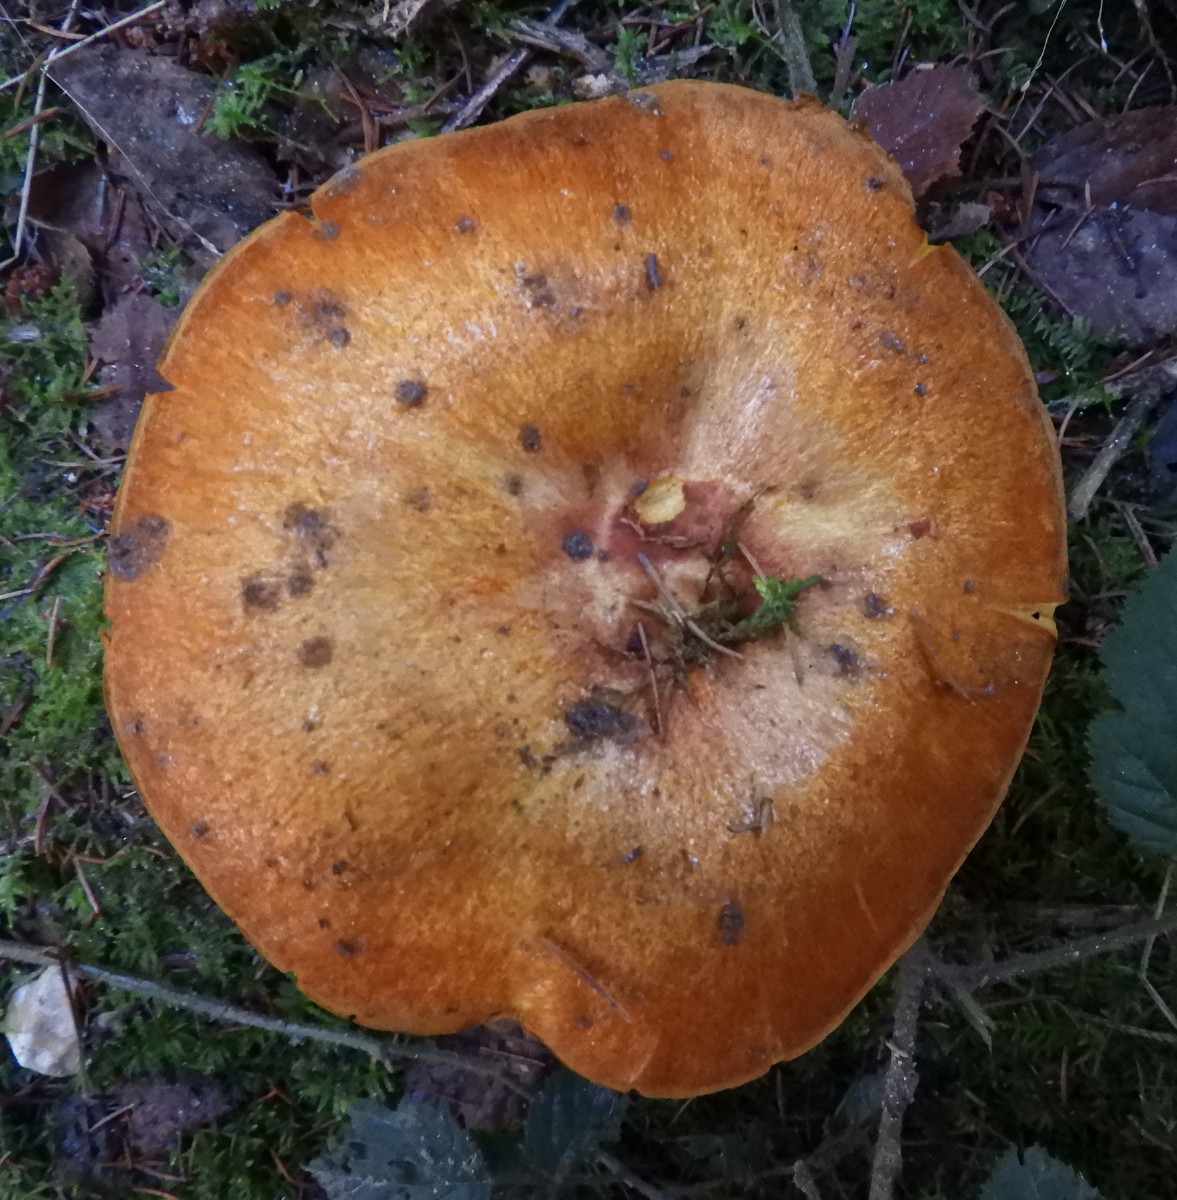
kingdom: Fungi
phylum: Basidiomycota
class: Agaricomycetes
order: Agaricales
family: Hymenogastraceae
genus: Gymnopilus
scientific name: Gymnopilus penetrans
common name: plettet flammehat
